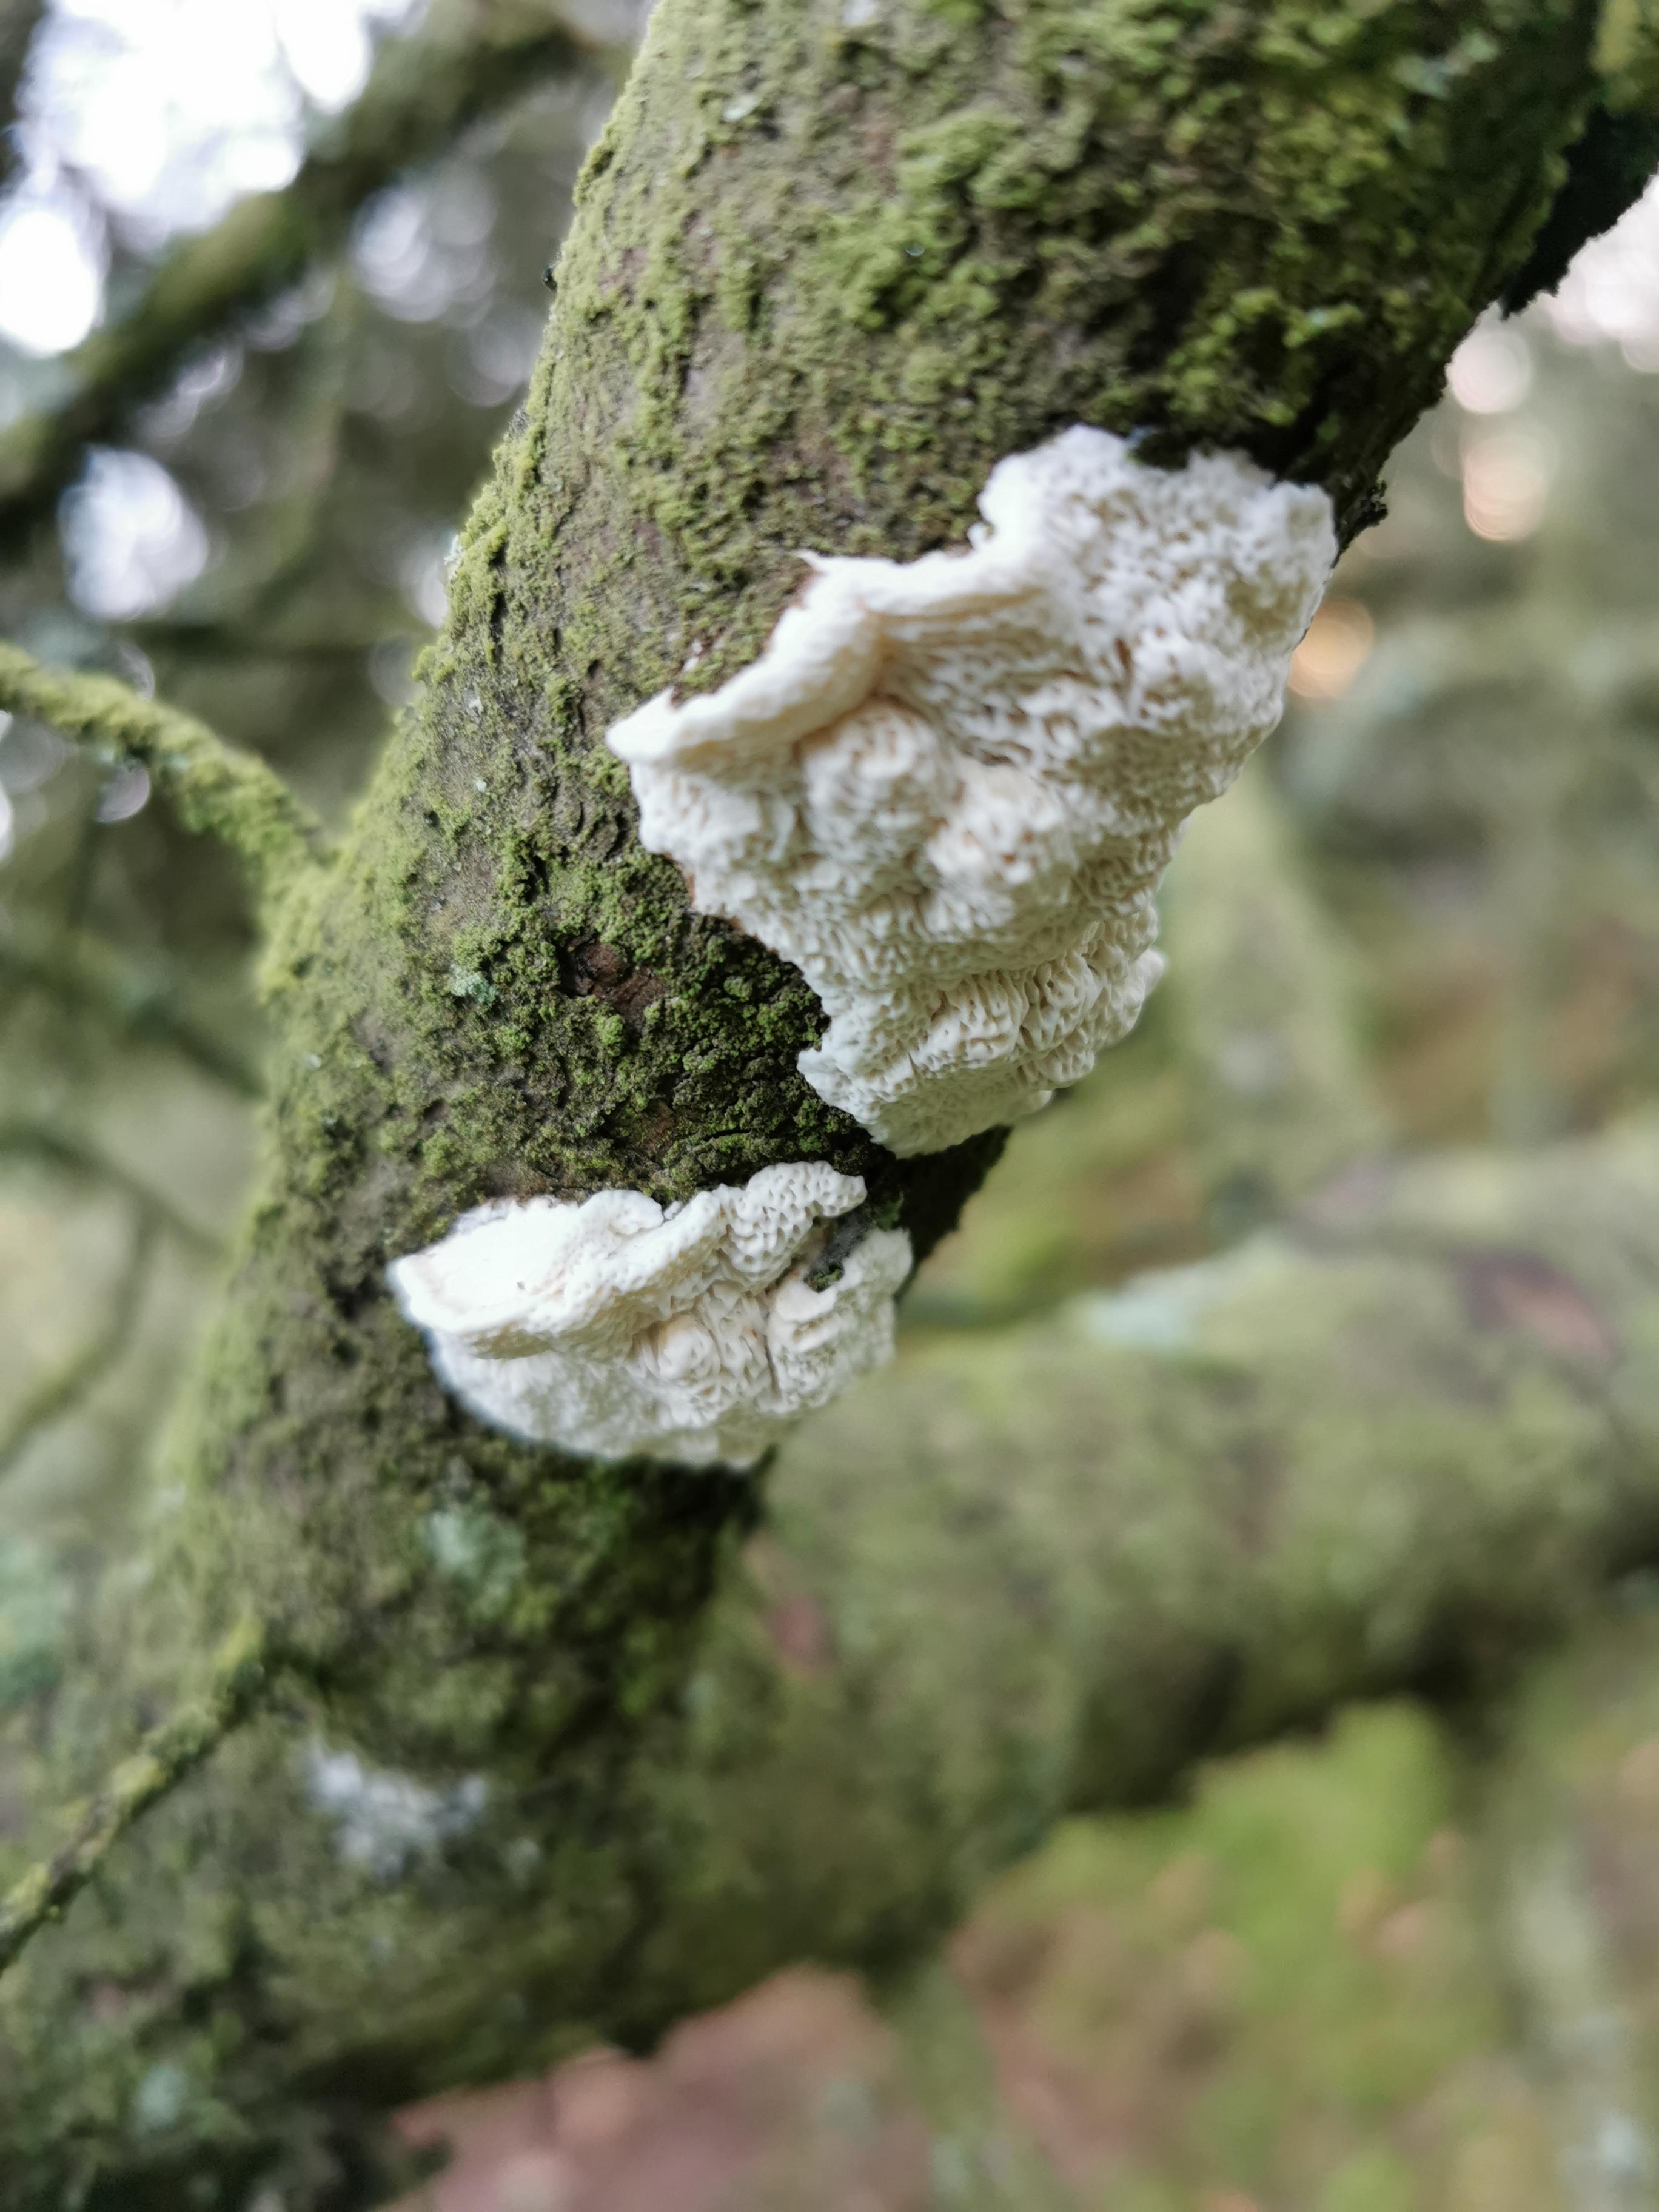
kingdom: Fungi
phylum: Basidiomycota
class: Agaricomycetes
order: Polyporales
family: Fomitopsidaceae
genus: Fomitopsis
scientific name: Fomitopsis
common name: fyrre-skiveporesvamp
